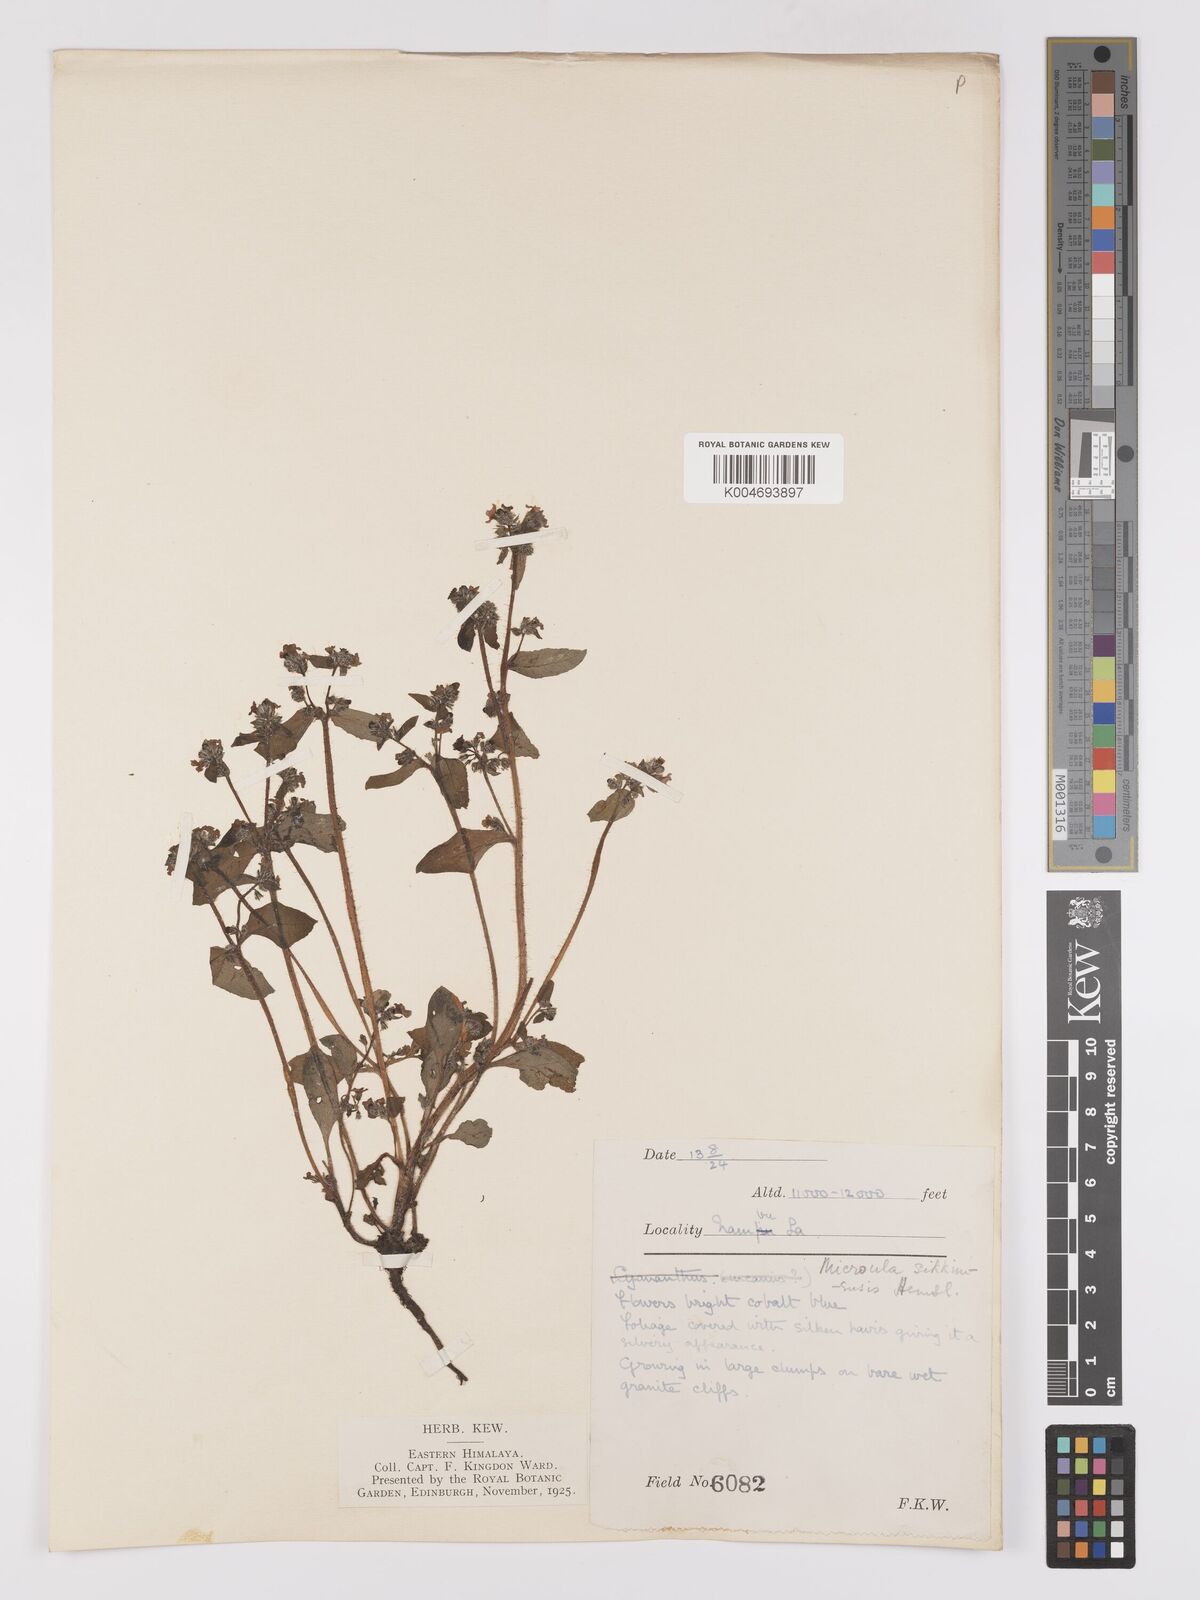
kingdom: Plantae
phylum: Tracheophyta
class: Magnoliopsida
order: Boraginales
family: Boraginaceae
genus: Microula
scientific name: Microula sikkimensis
